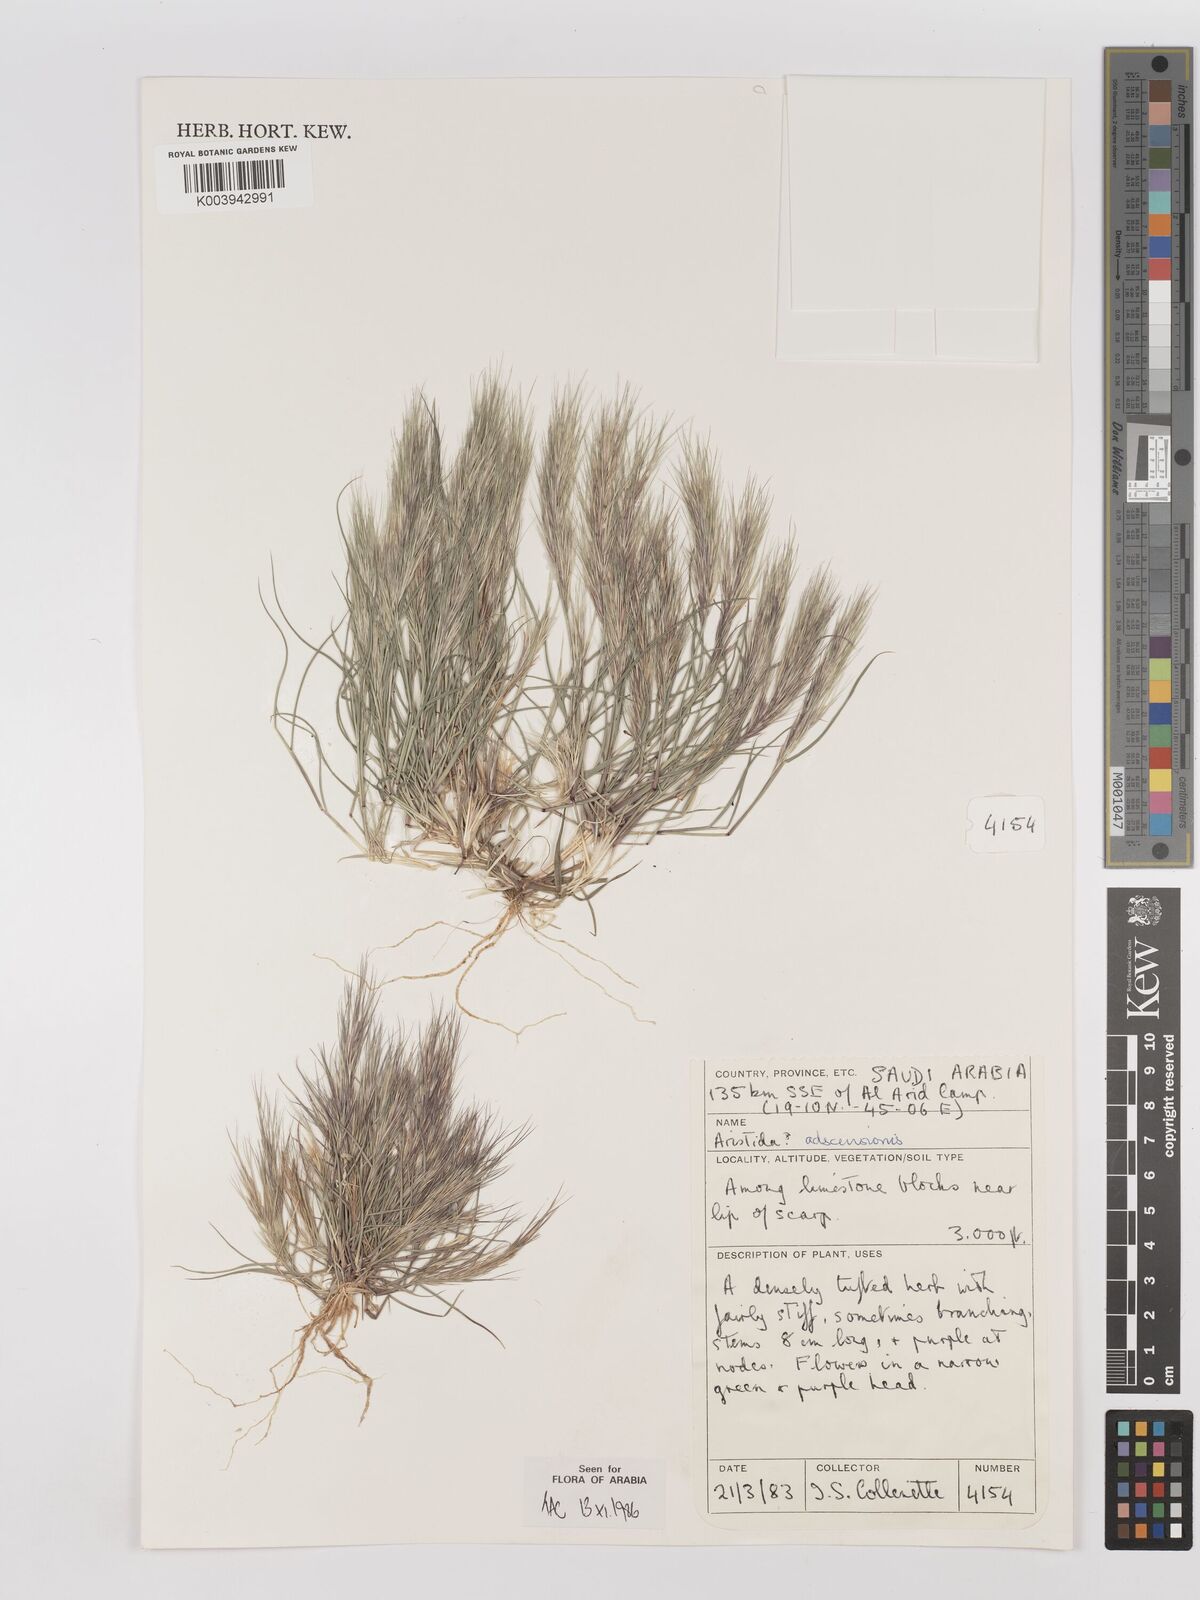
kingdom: Plantae
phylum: Tracheophyta
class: Liliopsida
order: Poales
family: Poaceae
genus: Aristida
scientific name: Aristida adscensionis
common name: Sixweeks threeawn
